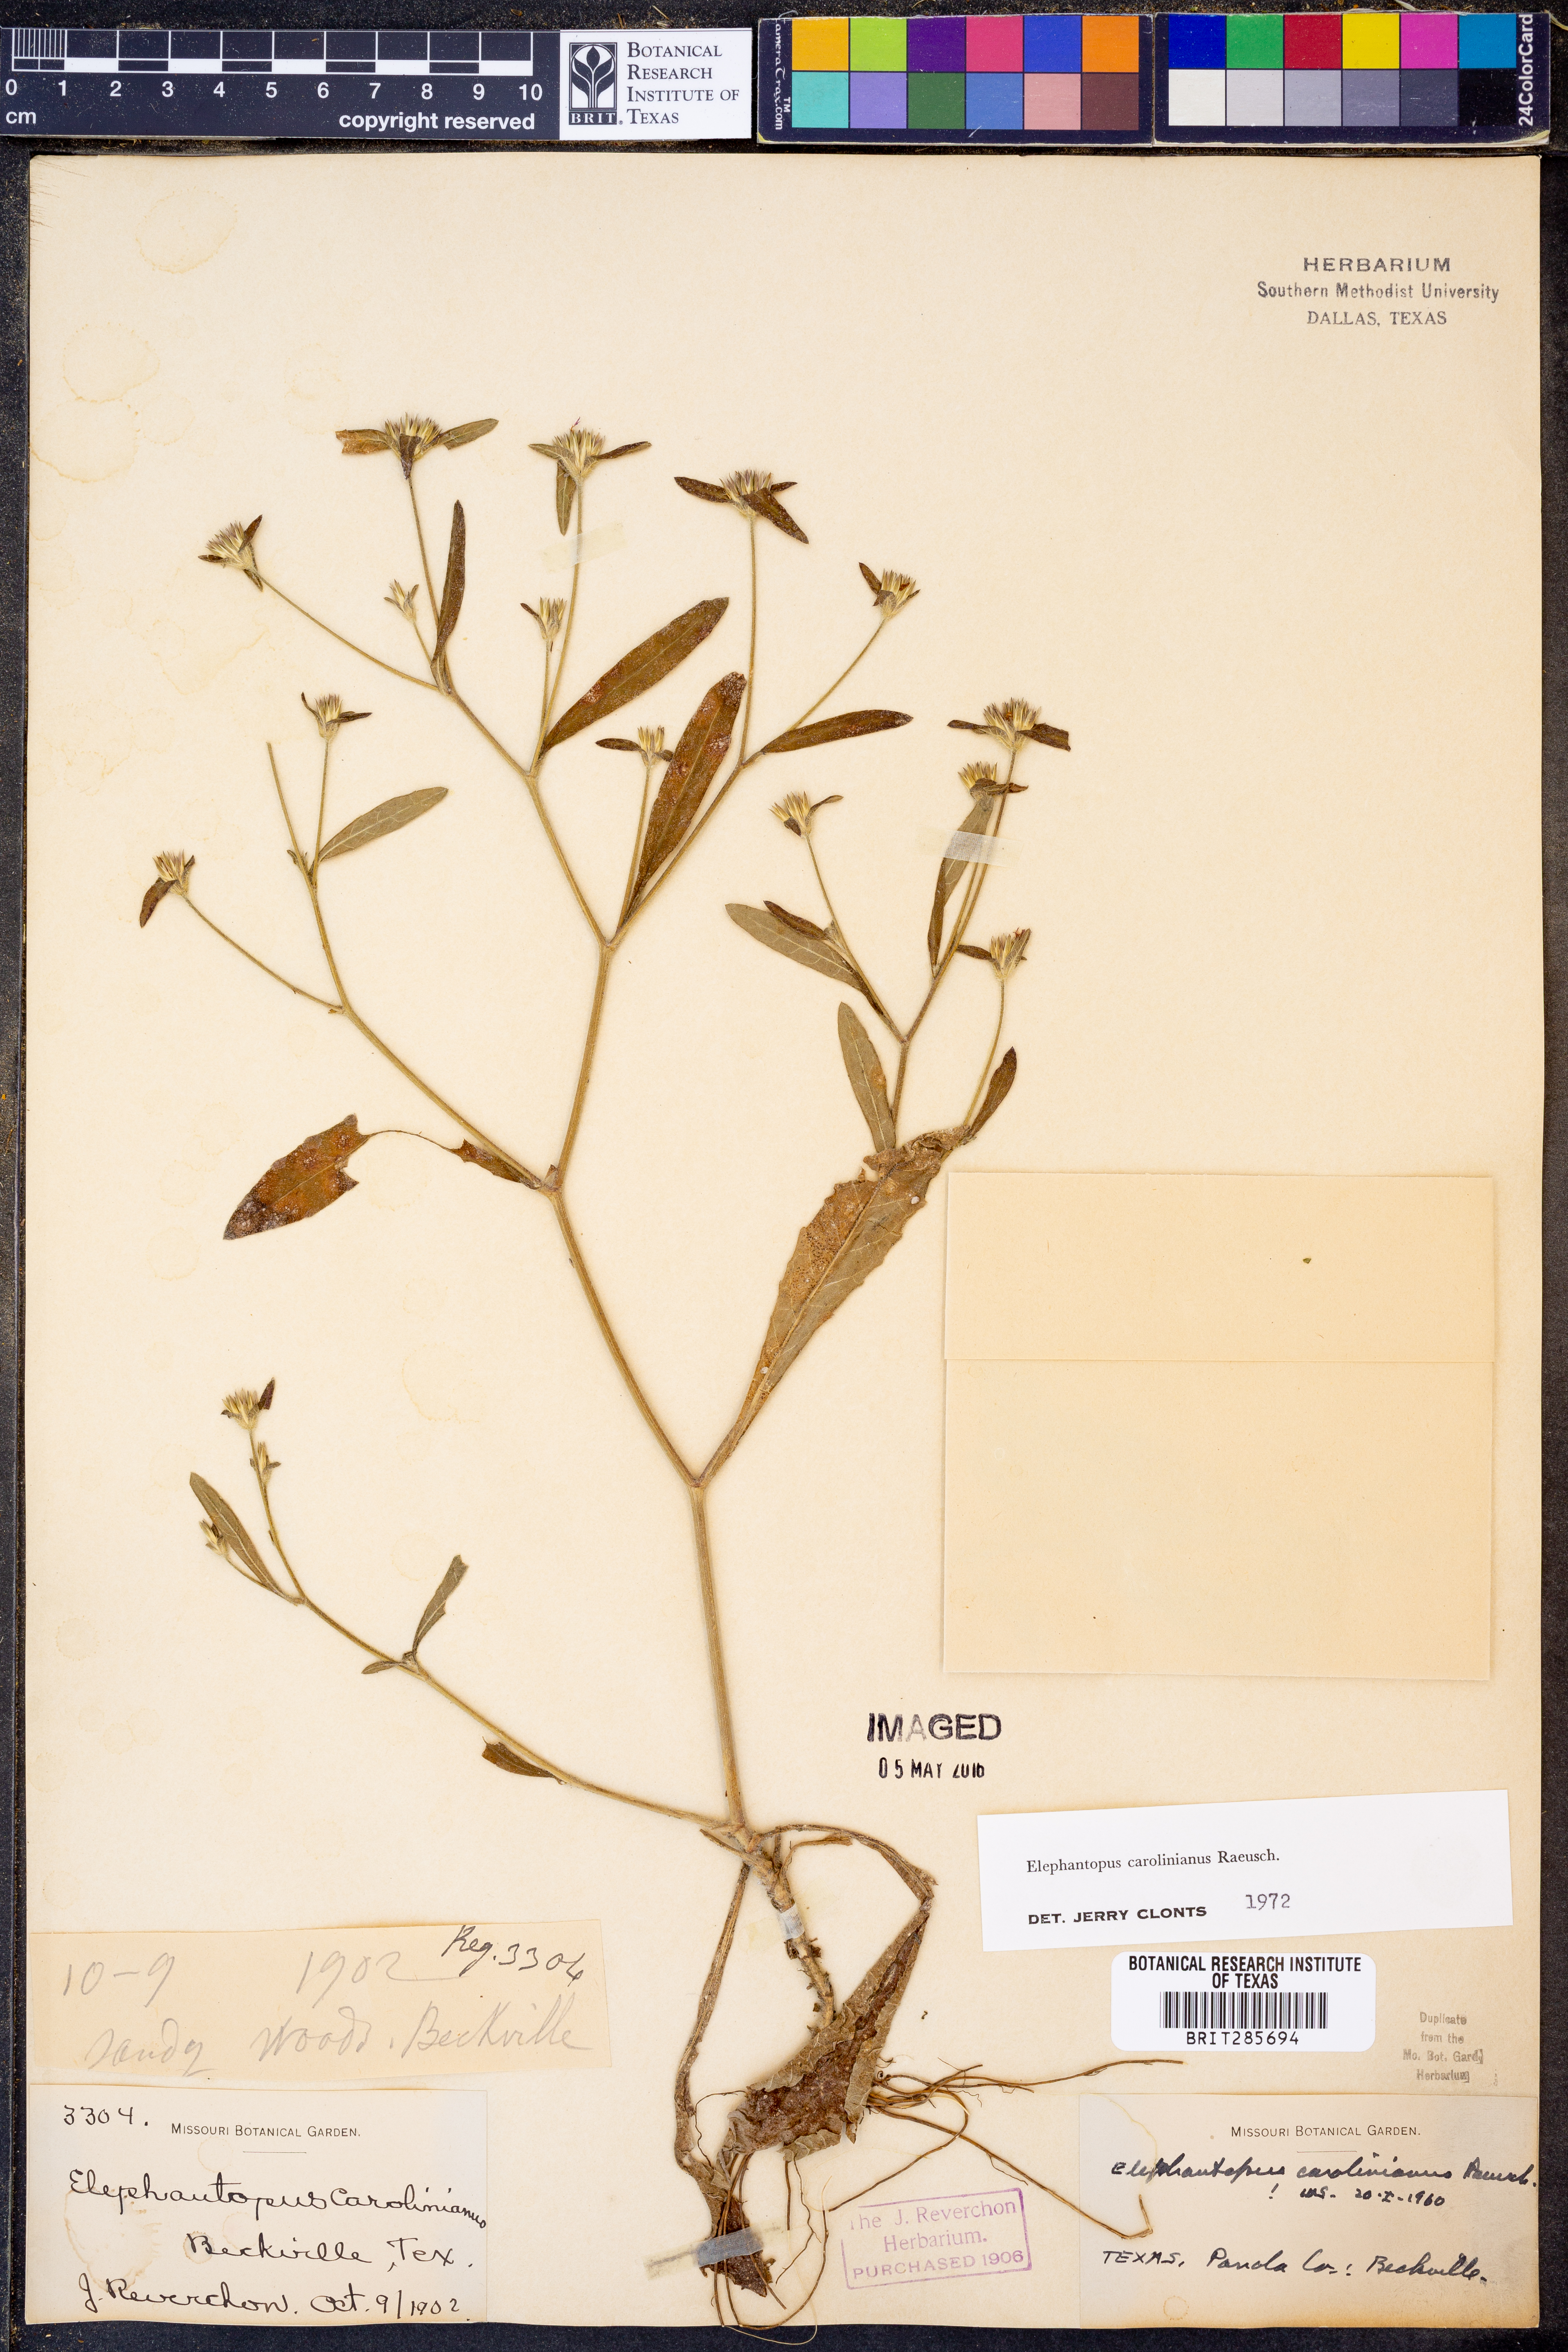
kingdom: Plantae
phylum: Tracheophyta
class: Magnoliopsida
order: Asterales
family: Asteraceae
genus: Elephantopus
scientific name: Elephantopus carolinianus
